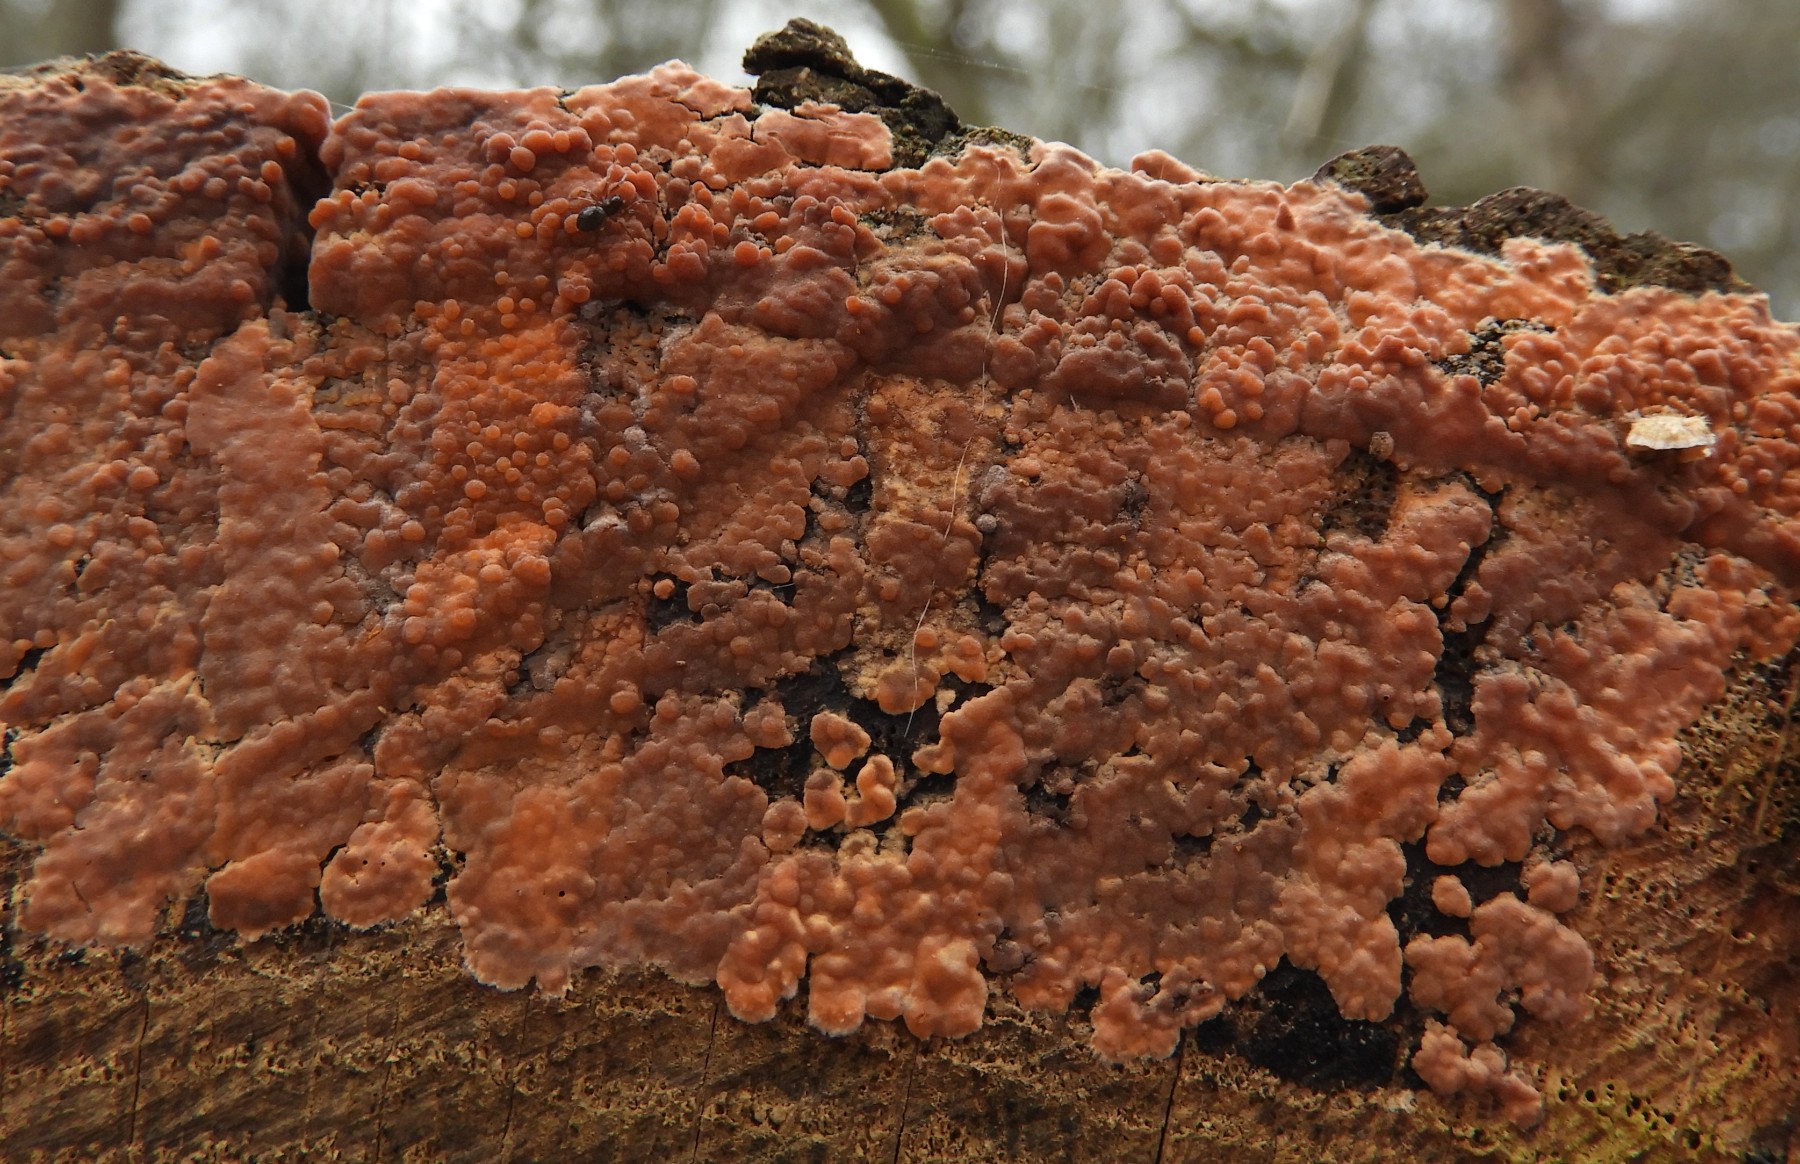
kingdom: Fungi
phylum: Basidiomycota
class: Agaricomycetes
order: Russulales
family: Peniophoraceae
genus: Peniophora
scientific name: Peniophora incarnata
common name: laksefarvet voksskind
